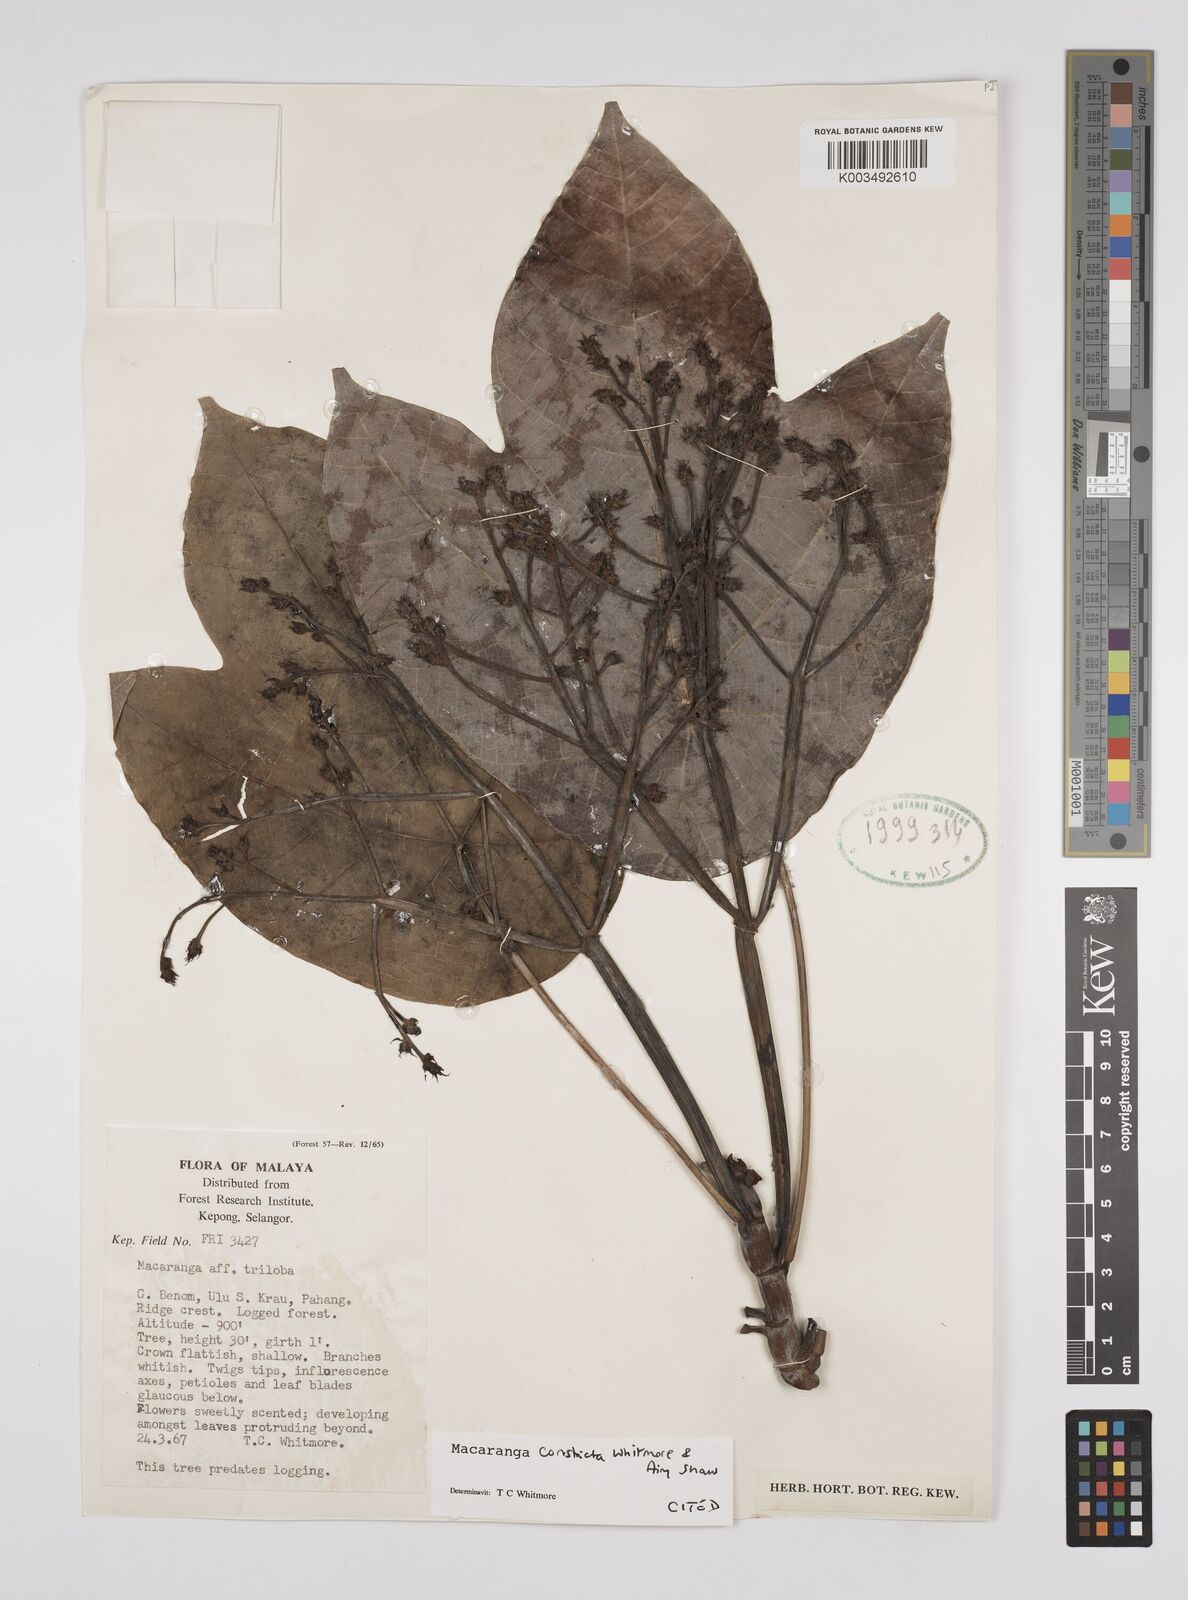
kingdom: Plantae
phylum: Tracheophyta
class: Magnoliopsida
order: Malpighiales
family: Euphorbiaceae
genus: Macaranga
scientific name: Macaranga constricta
